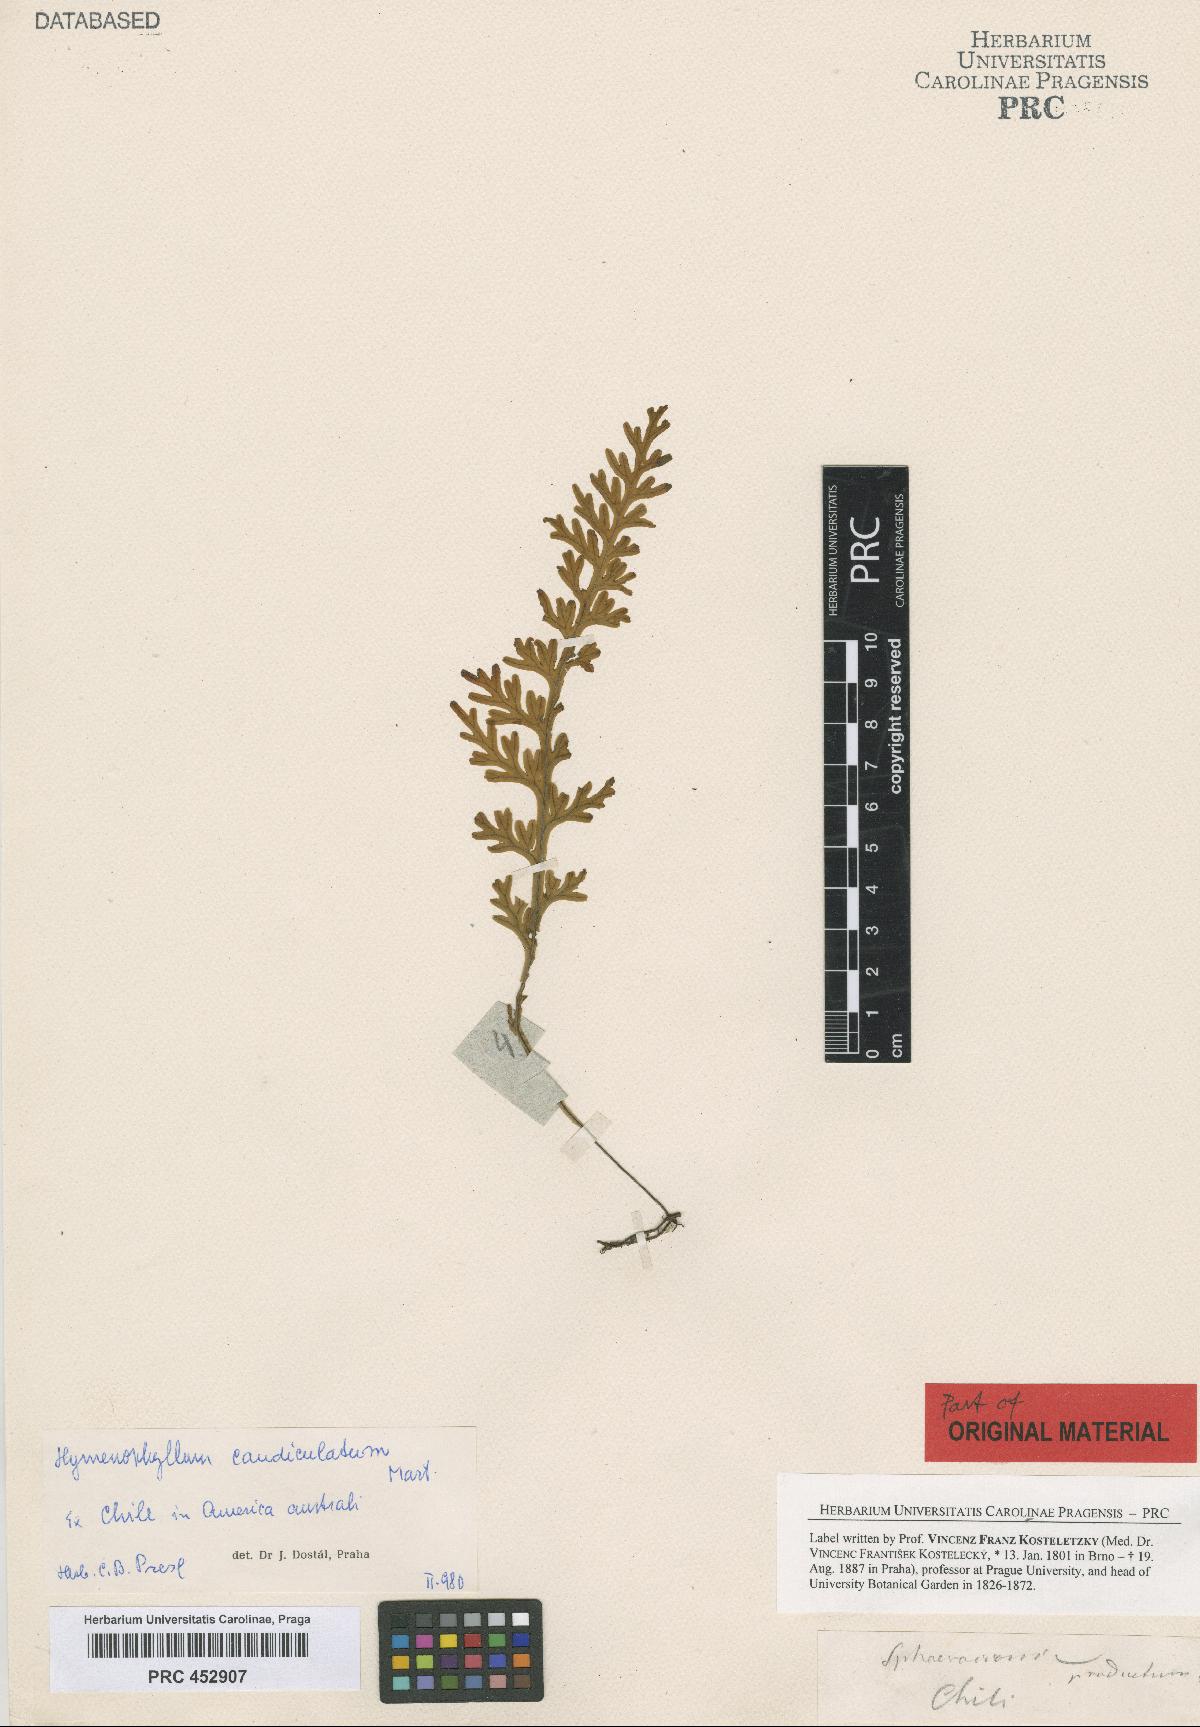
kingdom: Plantae
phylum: Tracheophyta
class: Polypodiopsida
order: Hymenophyllales
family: Hymenophyllaceae
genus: Hymenophyllum
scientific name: Hymenophyllum caudiculatum
